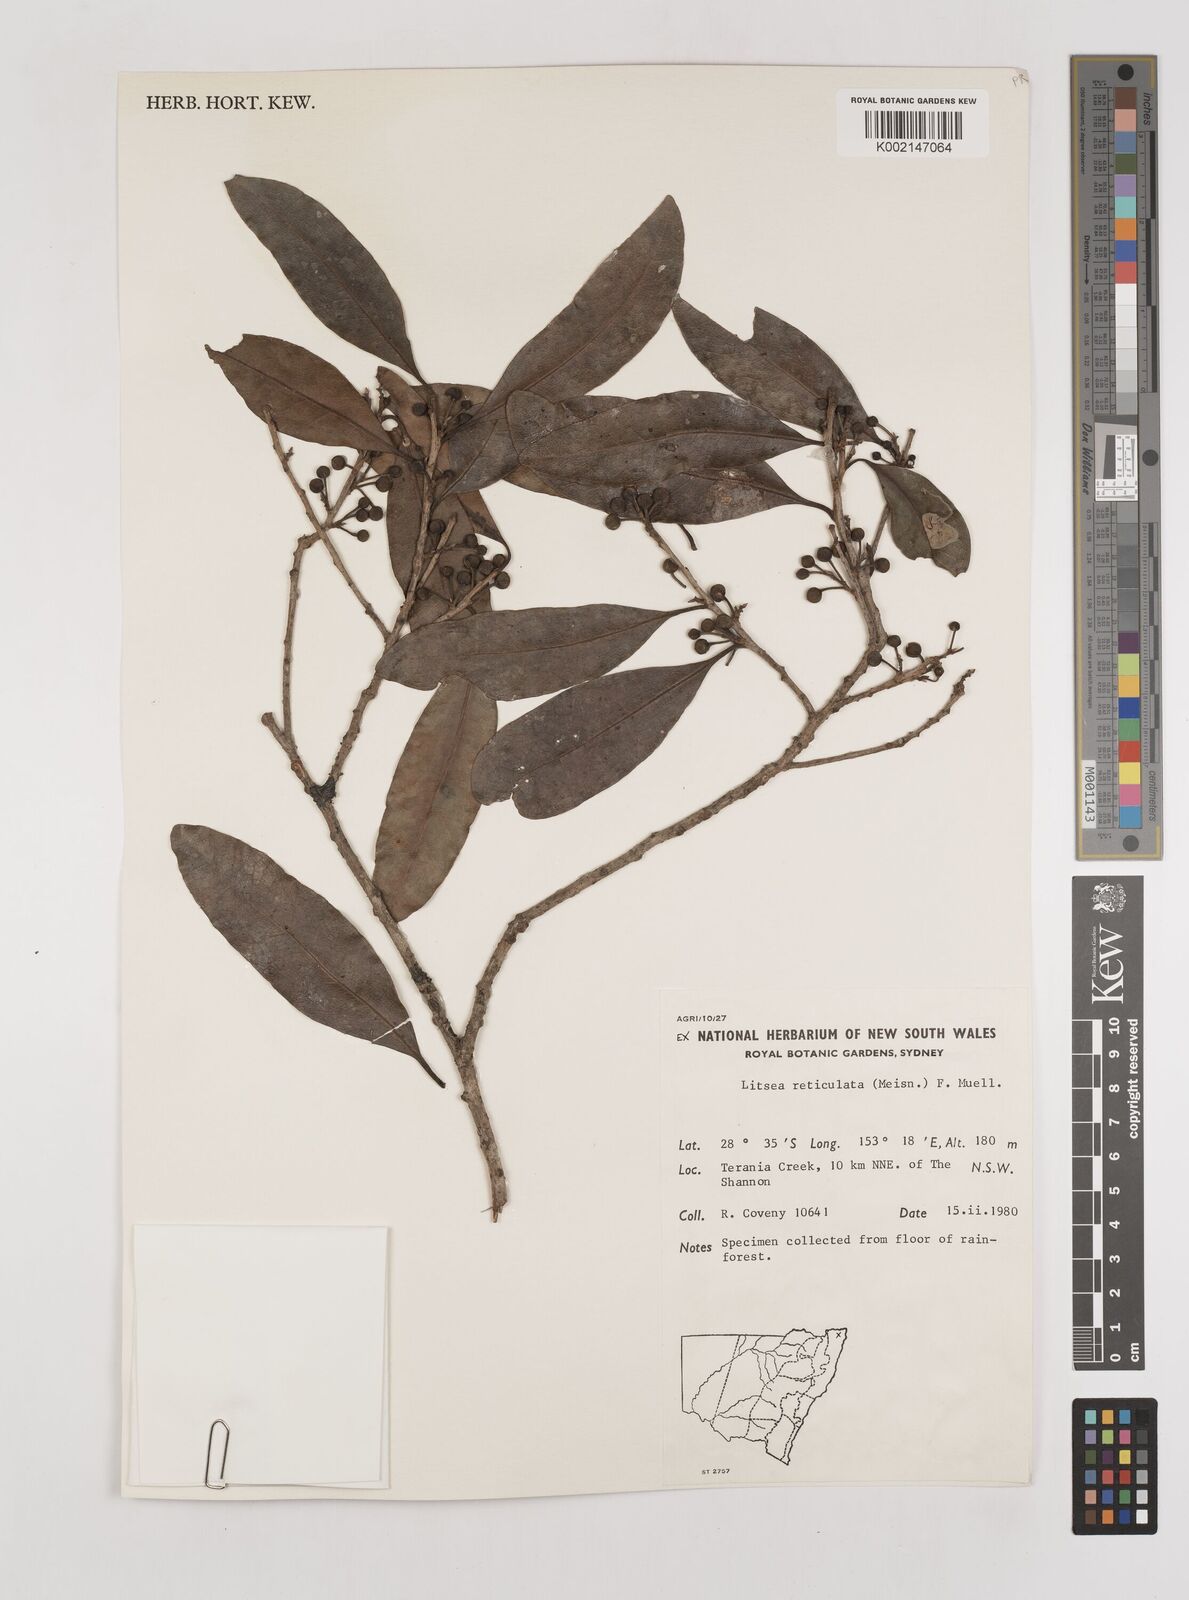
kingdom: Plantae
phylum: Tracheophyta
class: Magnoliopsida
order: Laurales
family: Lauraceae
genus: Litsea
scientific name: Litsea reticulata
